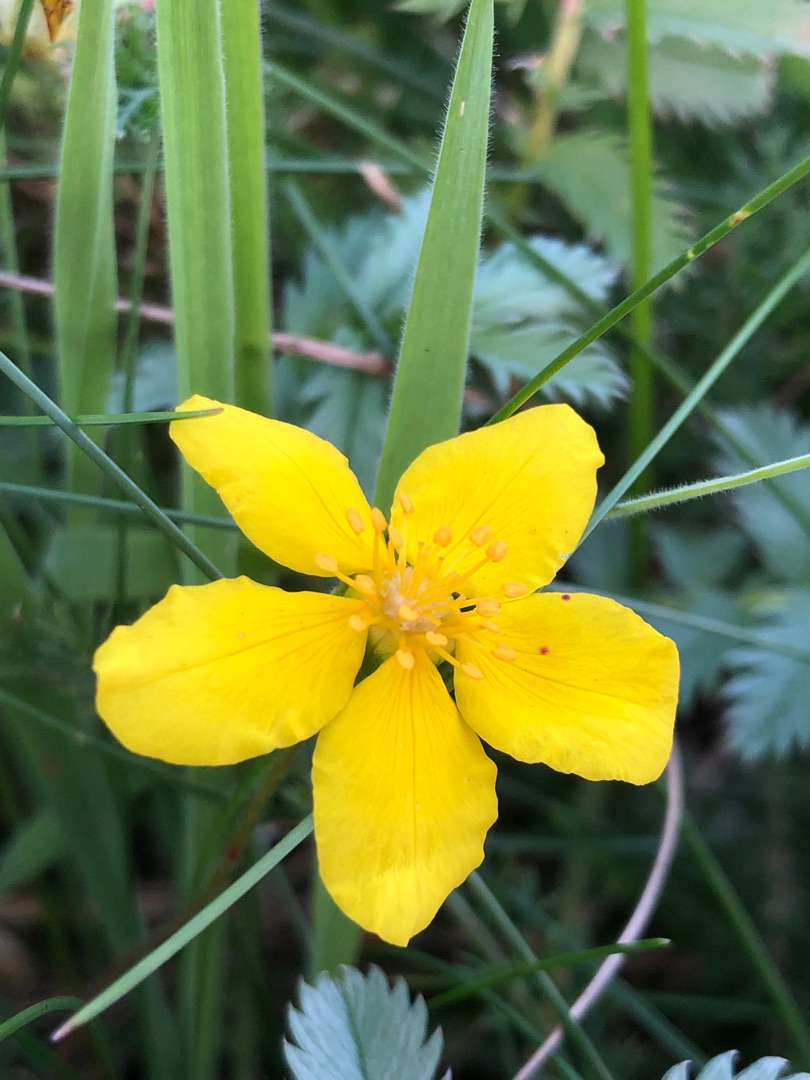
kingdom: Plantae
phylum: Tracheophyta
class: Magnoliopsida
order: Rosales
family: Rosaceae
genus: Argentina
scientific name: Argentina anserina
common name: Gåsepotentil
